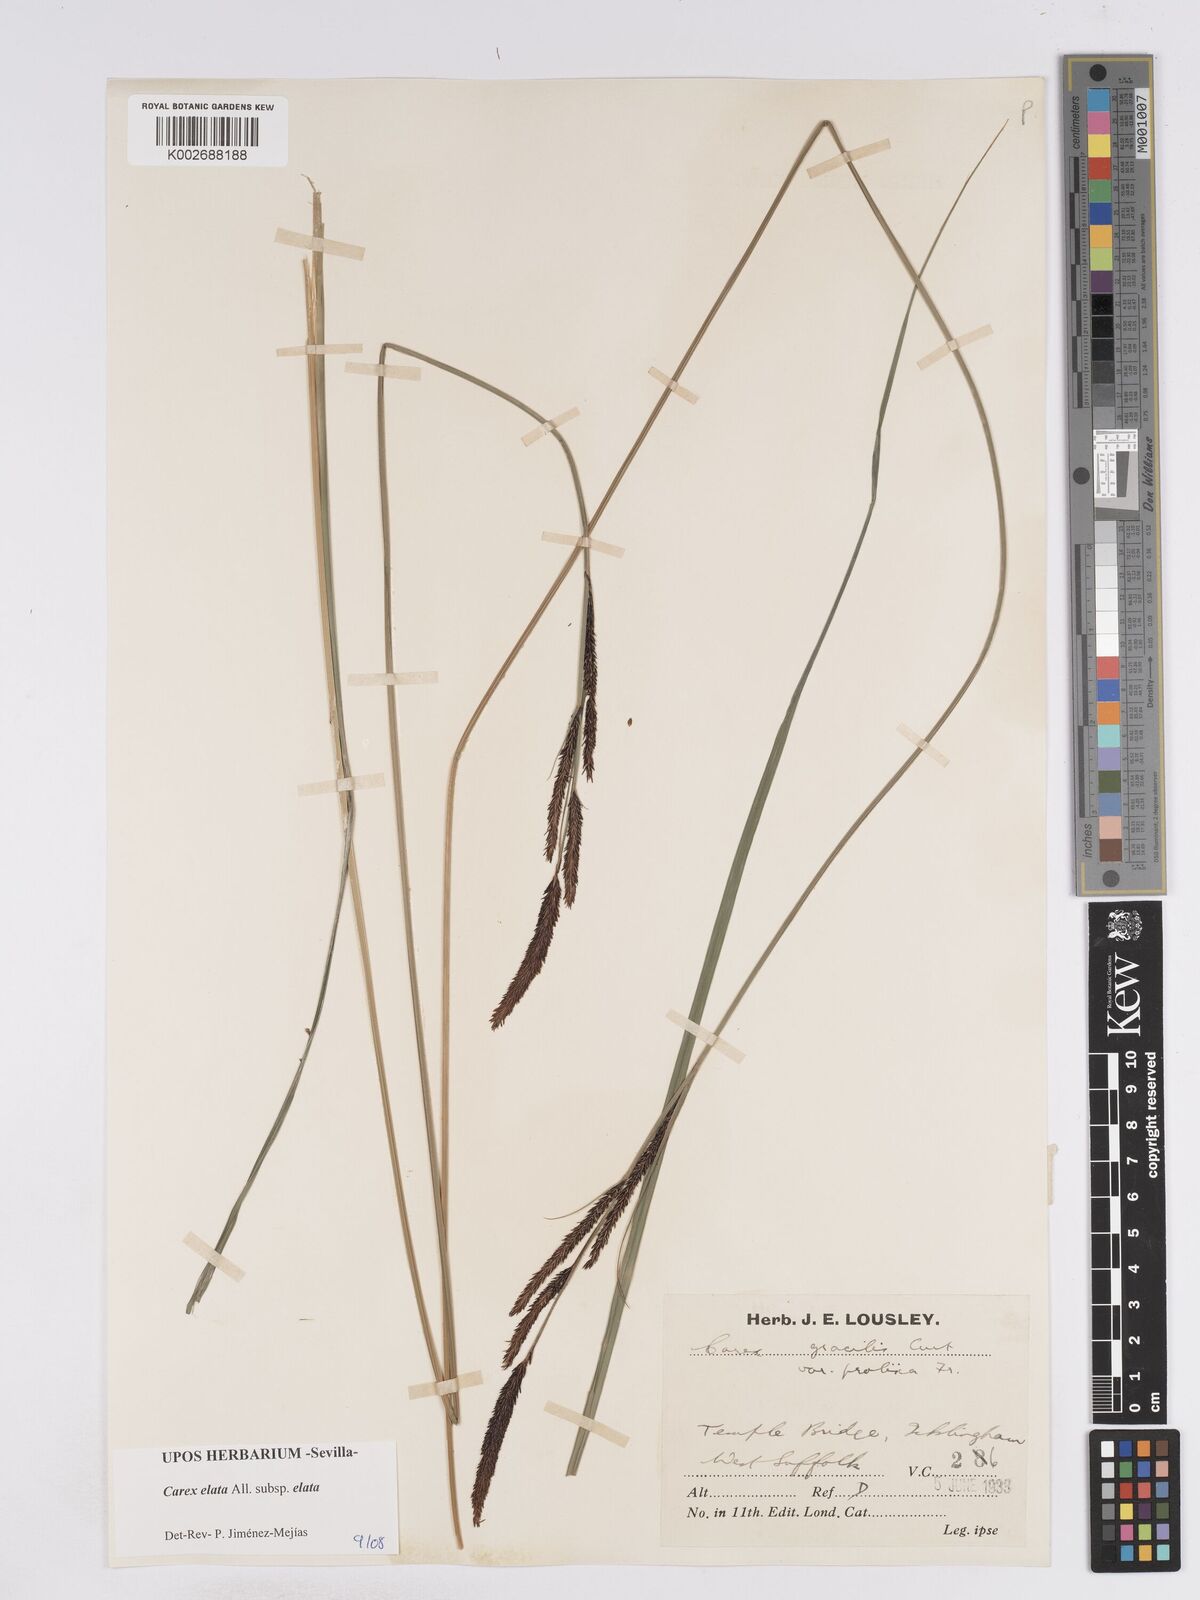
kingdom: Plantae
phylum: Tracheophyta
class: Liliopsida
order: Poales
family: Cyperaceae
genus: Carex
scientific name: Carex elata
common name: Tufted sedge
